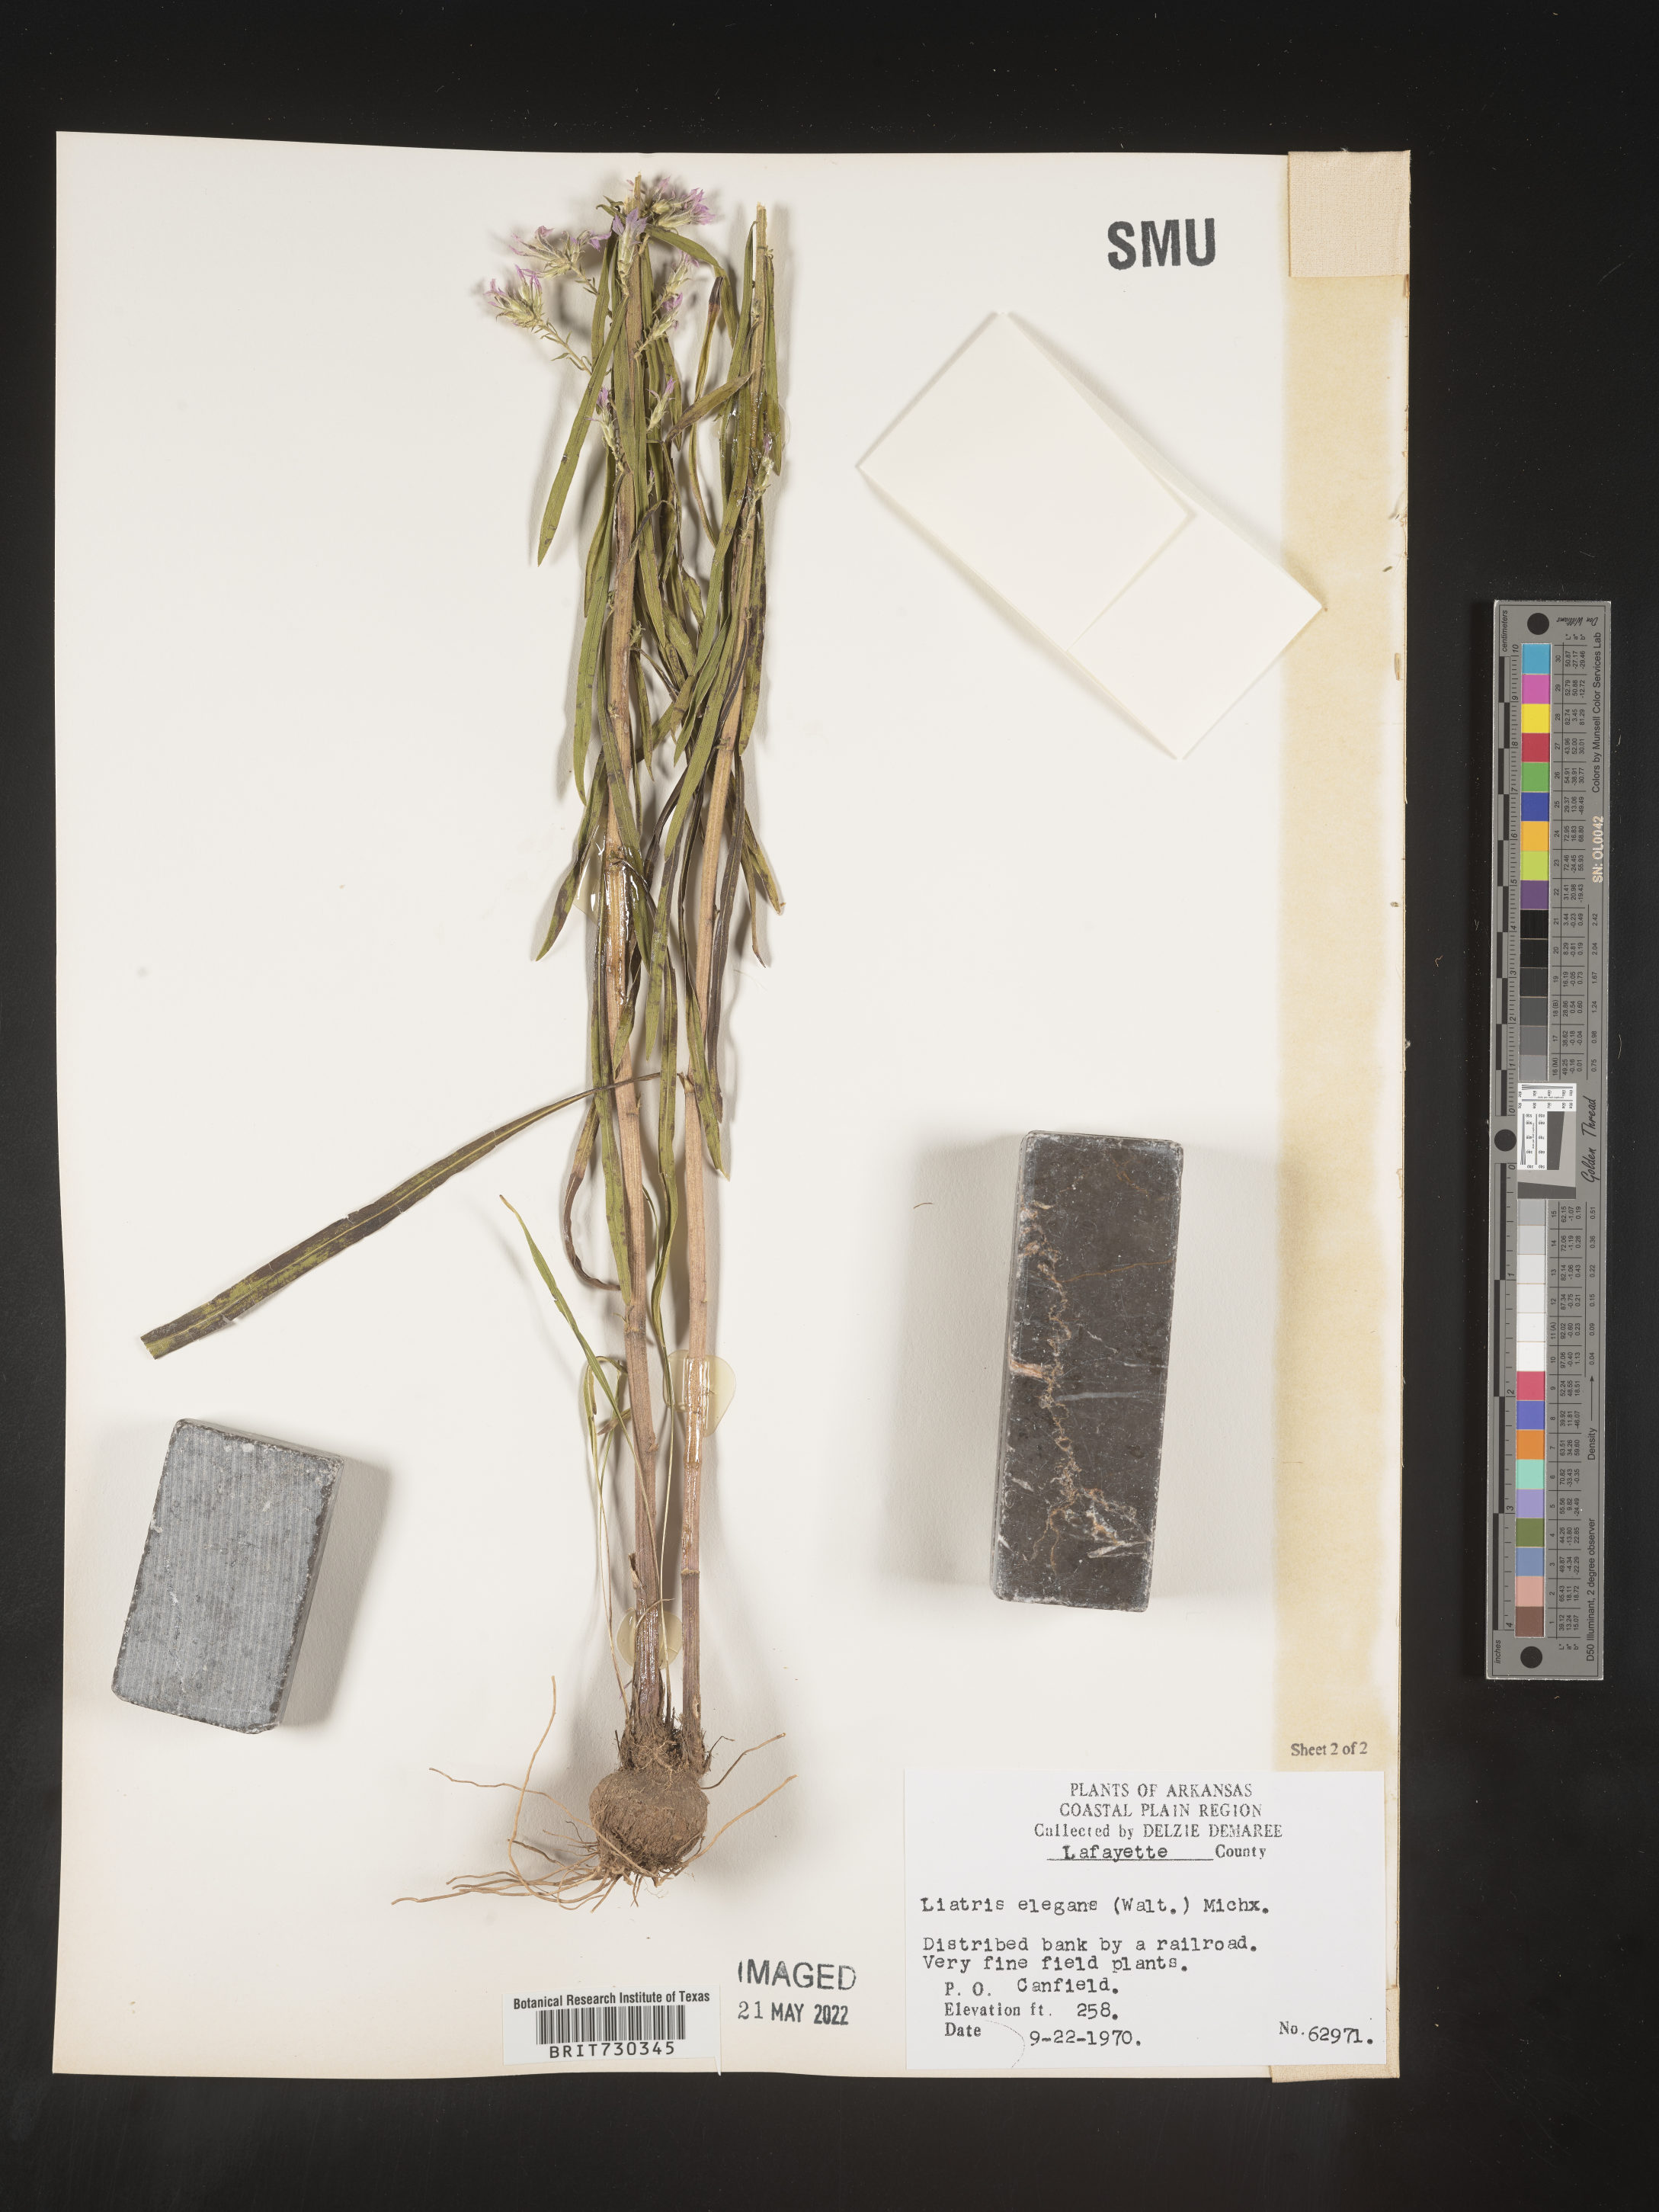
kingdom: Plantae
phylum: Tracheophyta
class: Magnoliopsida
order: Asterales
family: Asteraceae
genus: Liatris
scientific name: Liatris elegans
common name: Pinkscale gayfeather
